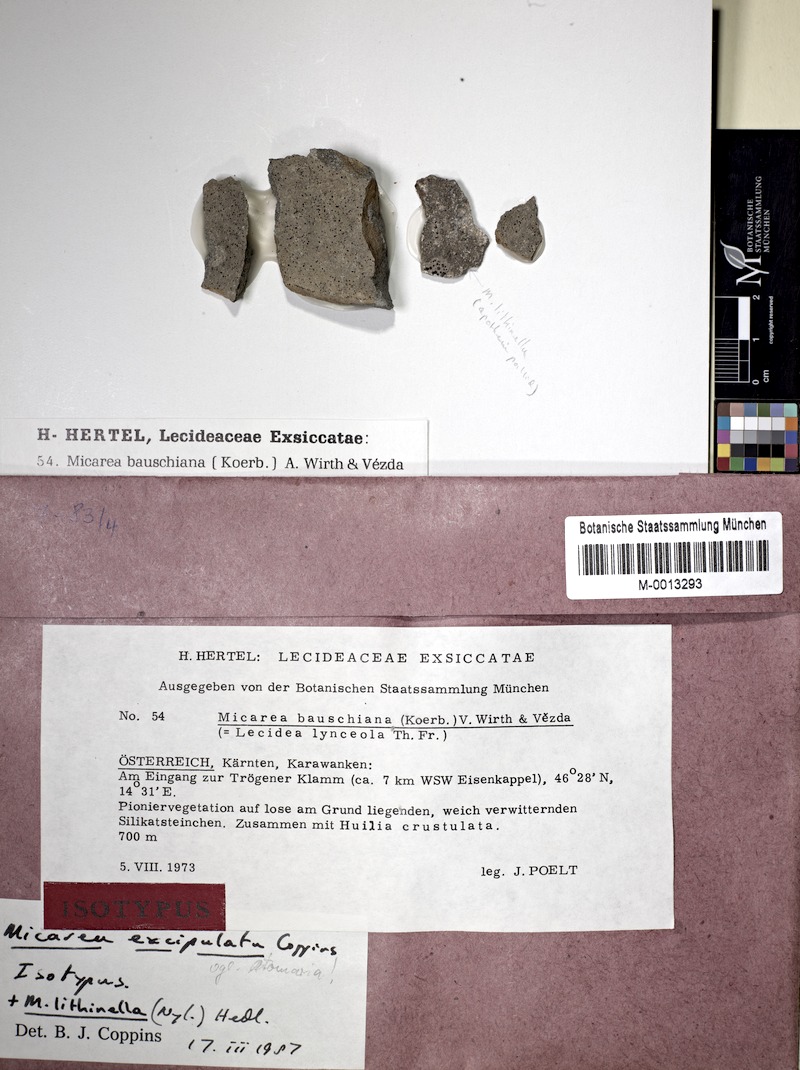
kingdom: Fungi
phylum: Ascomycota
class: Lecanoromycetes
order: Lecanorales
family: Byssolomataceae
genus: Micarea
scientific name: Micarea lithinella
